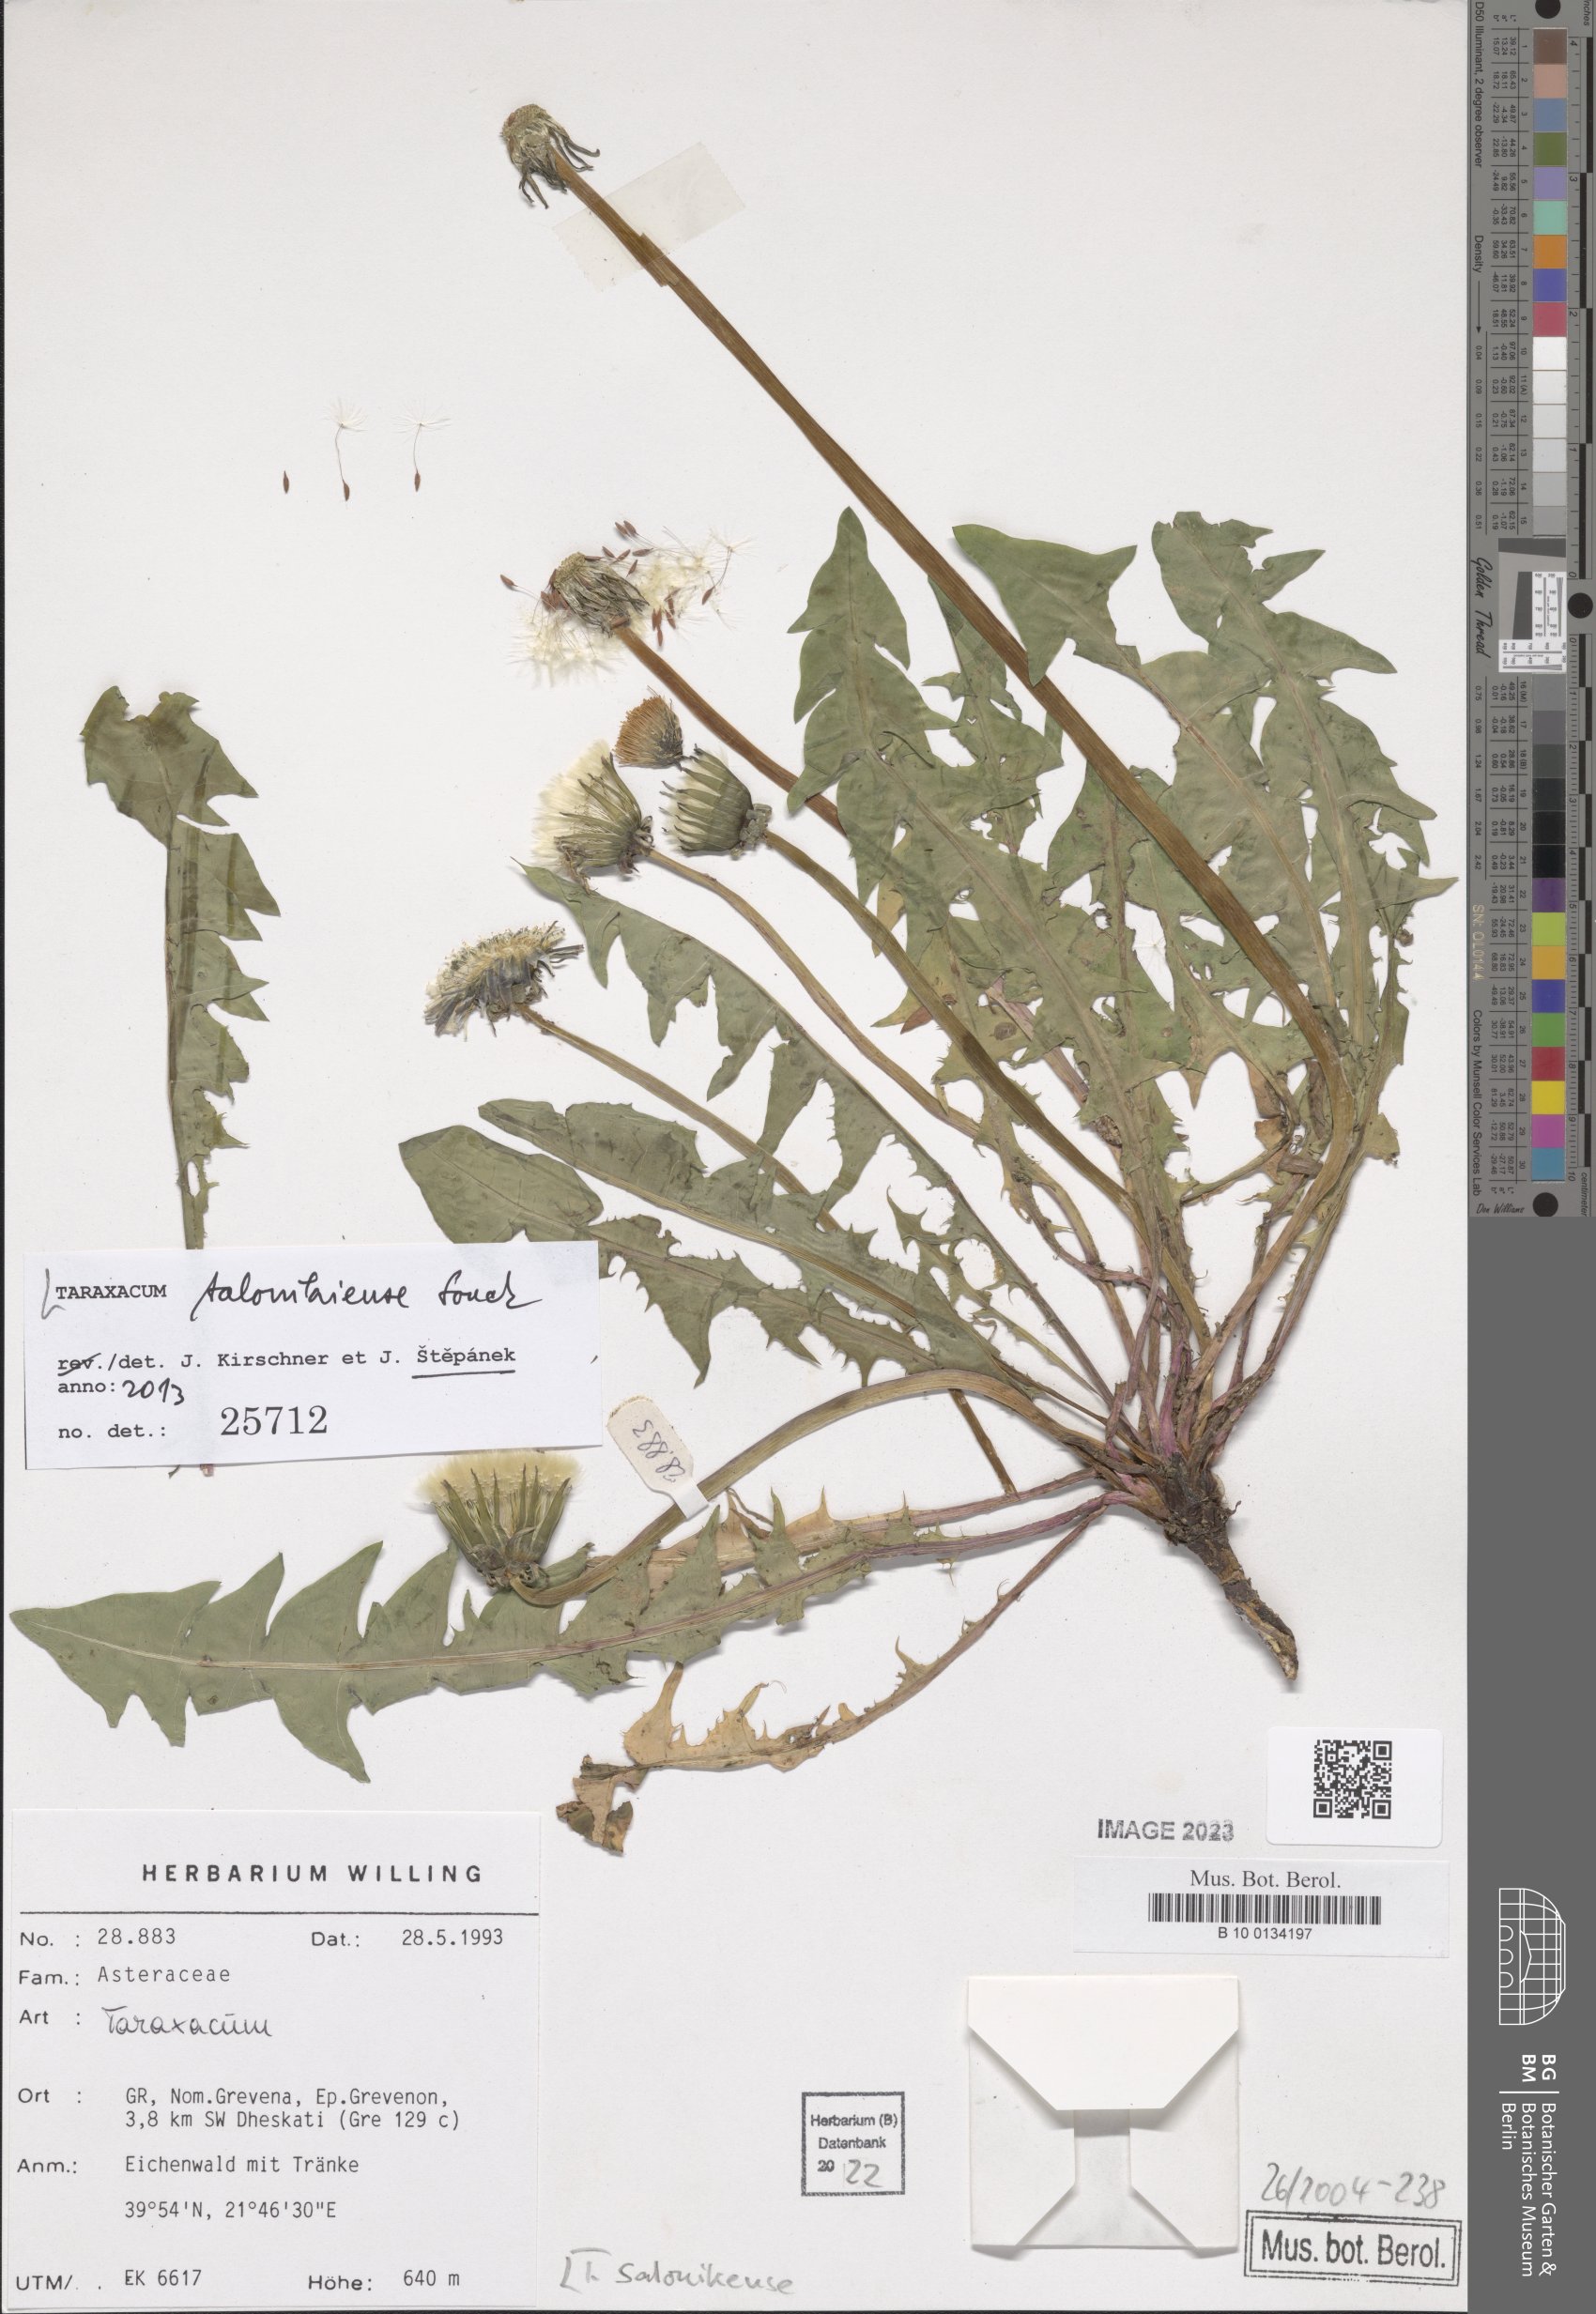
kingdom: Plantae
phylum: Tracheophyta
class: Magnoliopsida
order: Asterales
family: Asteraceae
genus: Taraxacum
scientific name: Taraxacum salonikiense
